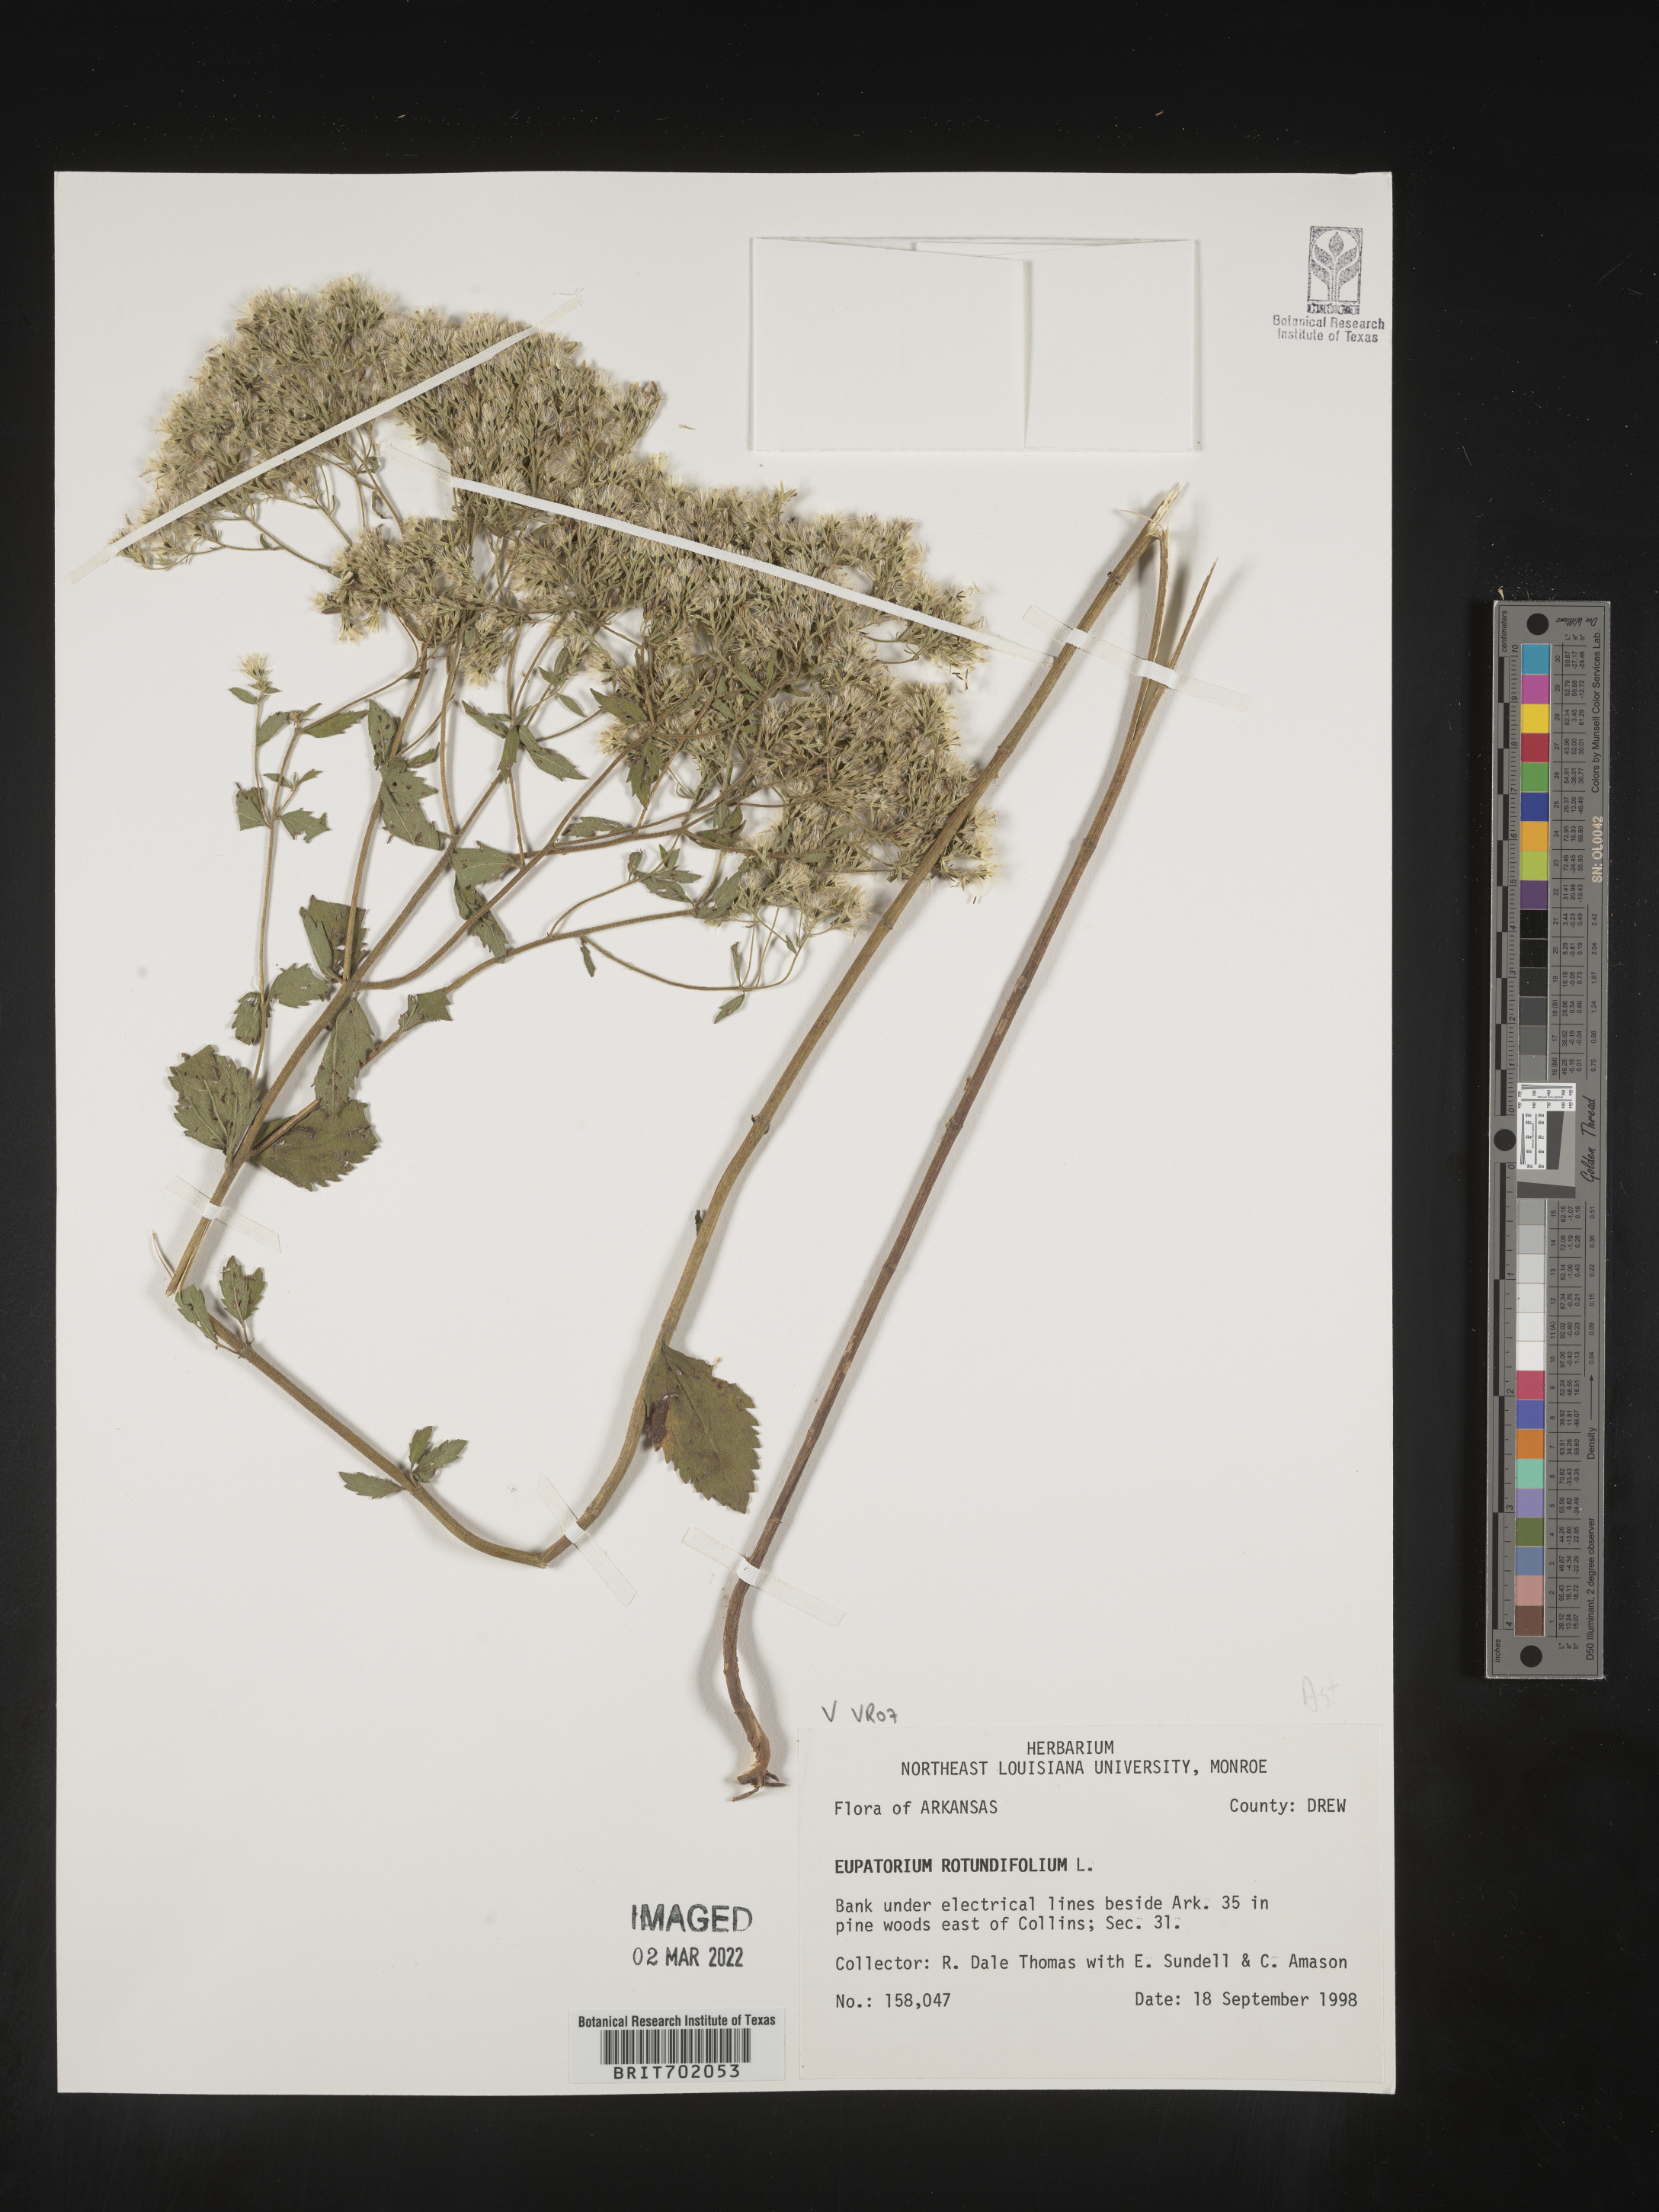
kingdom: Plantae
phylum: Tracheophyta
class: Magnoliopsida
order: Asterales
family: Asteraceae
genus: Eupatorium
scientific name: Eupatorium rotundifolium
